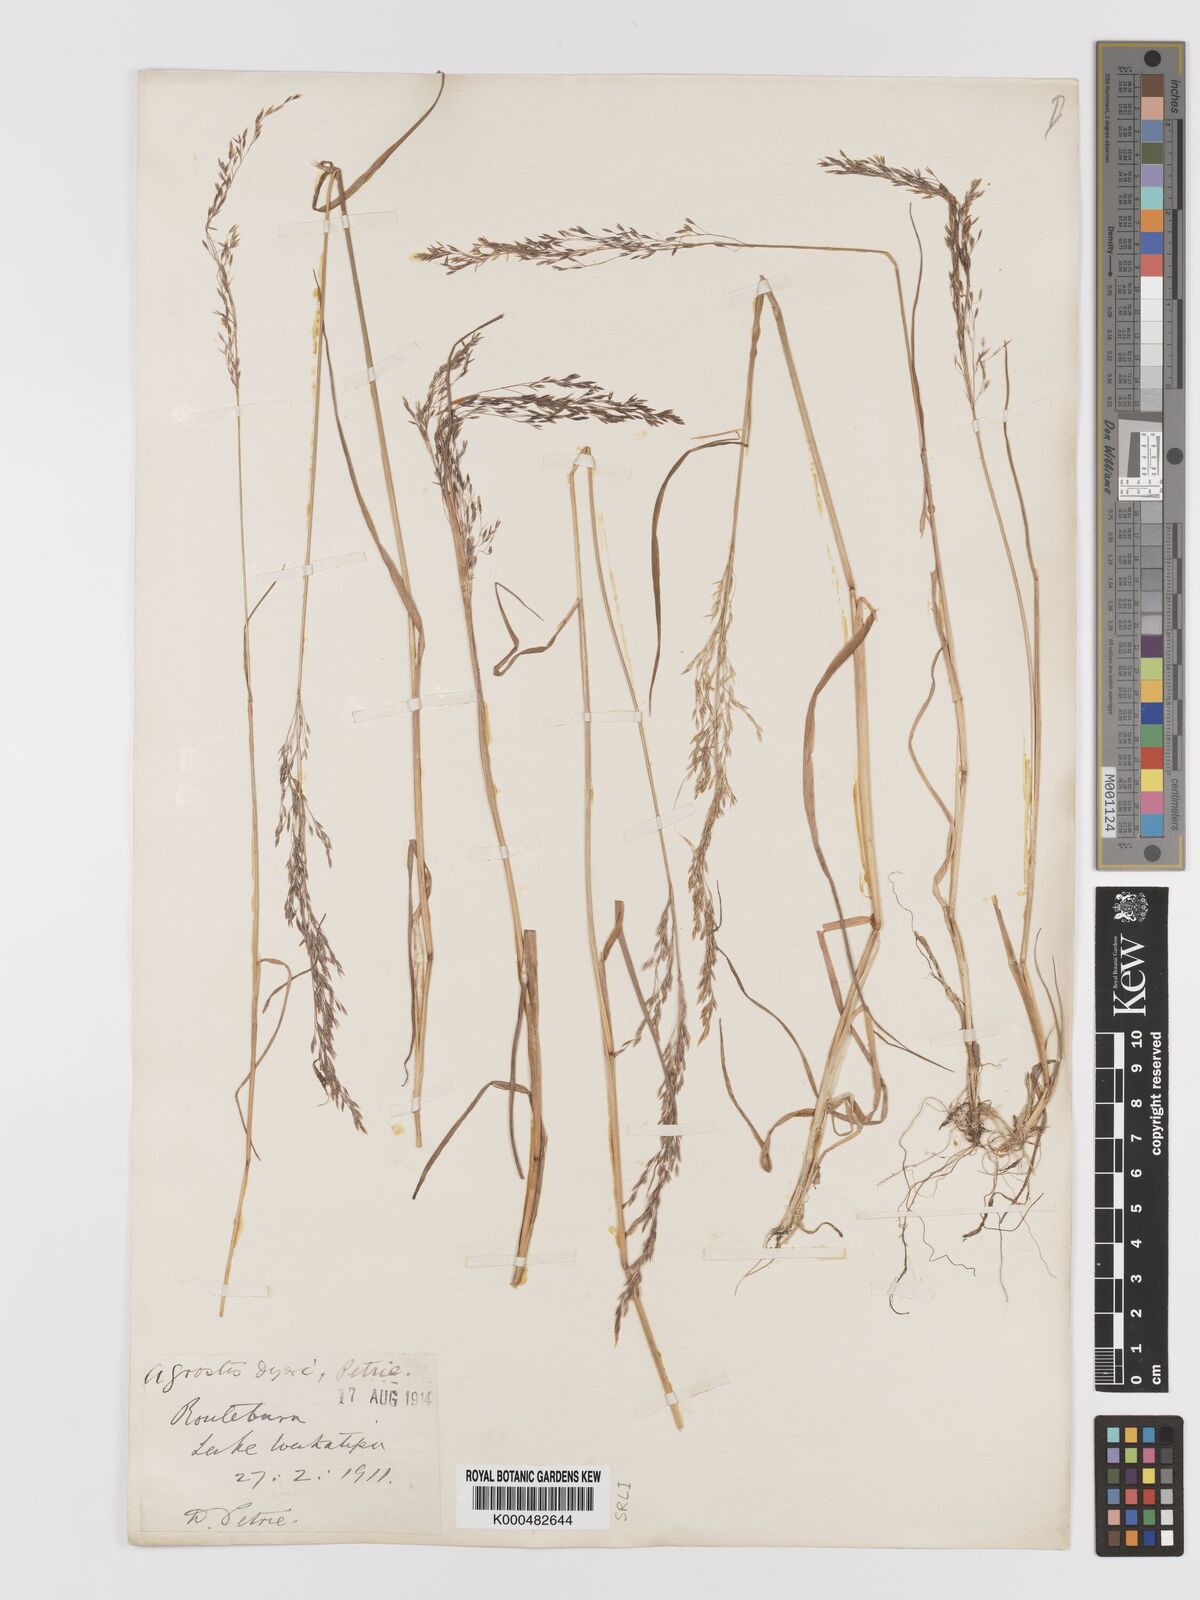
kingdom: Plantae
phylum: Tracheophyta
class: Liliopsida
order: Poales
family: Poaceae
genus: Agrostis
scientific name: Agrostis dyeri
